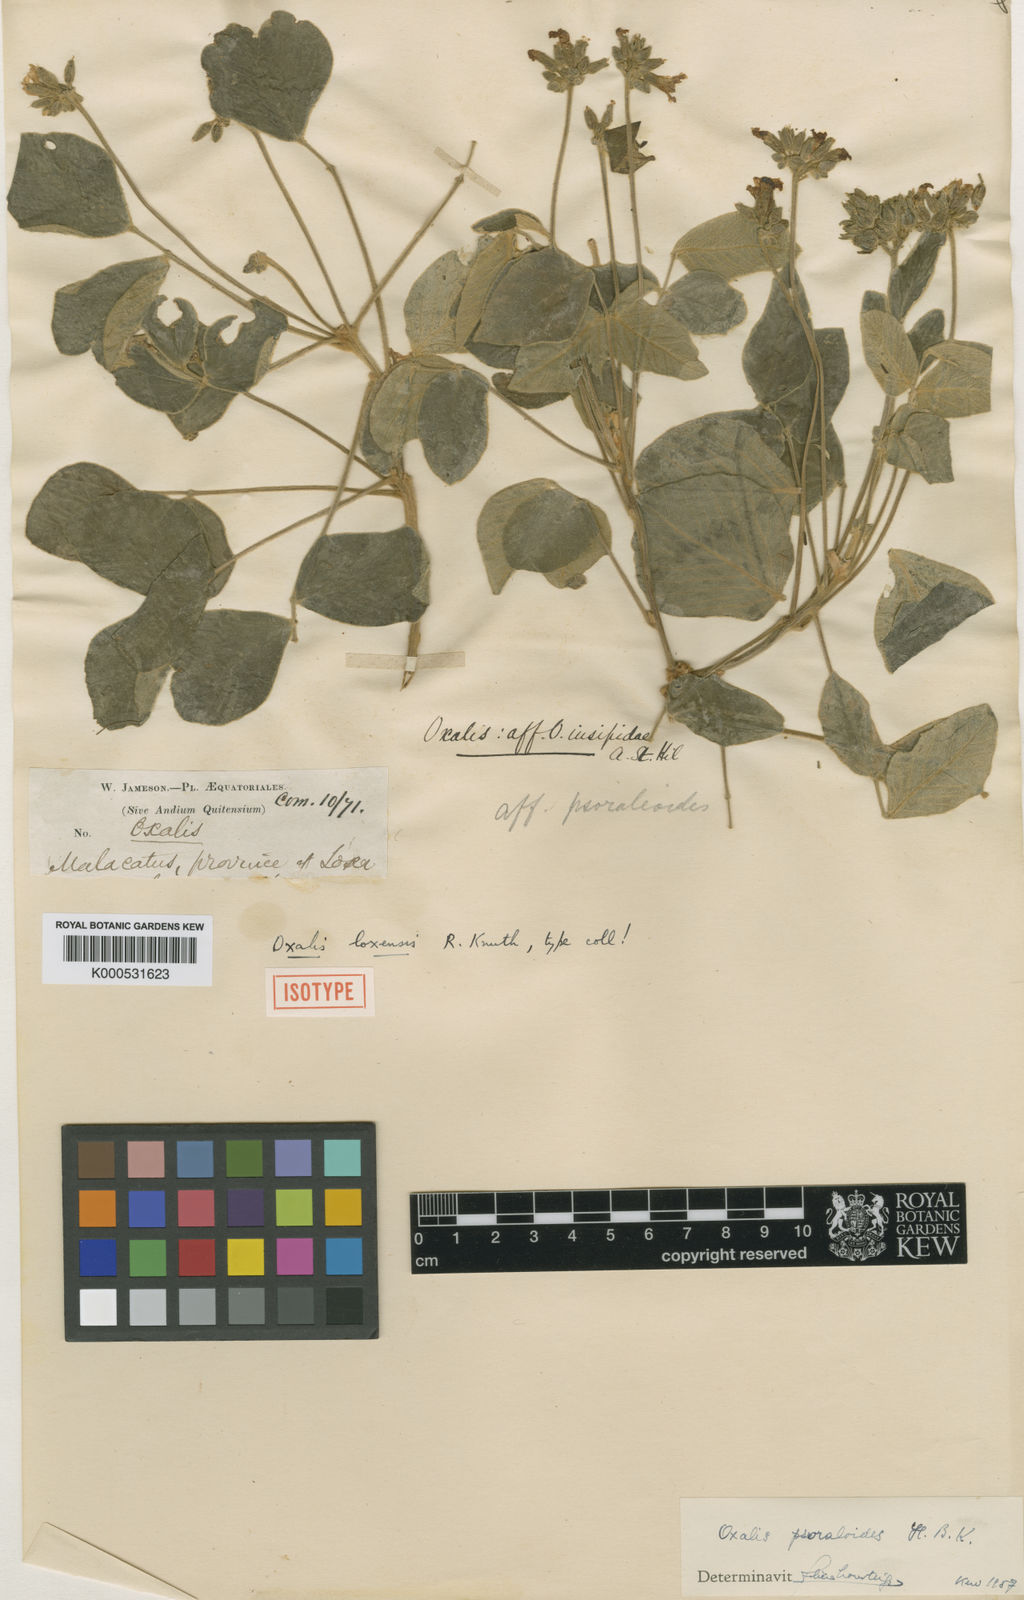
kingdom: Plantae
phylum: Tracheophyta
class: Magnoliopsida
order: Oxalidales
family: Oxalidaceae
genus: Oxalis
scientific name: Oxalis
